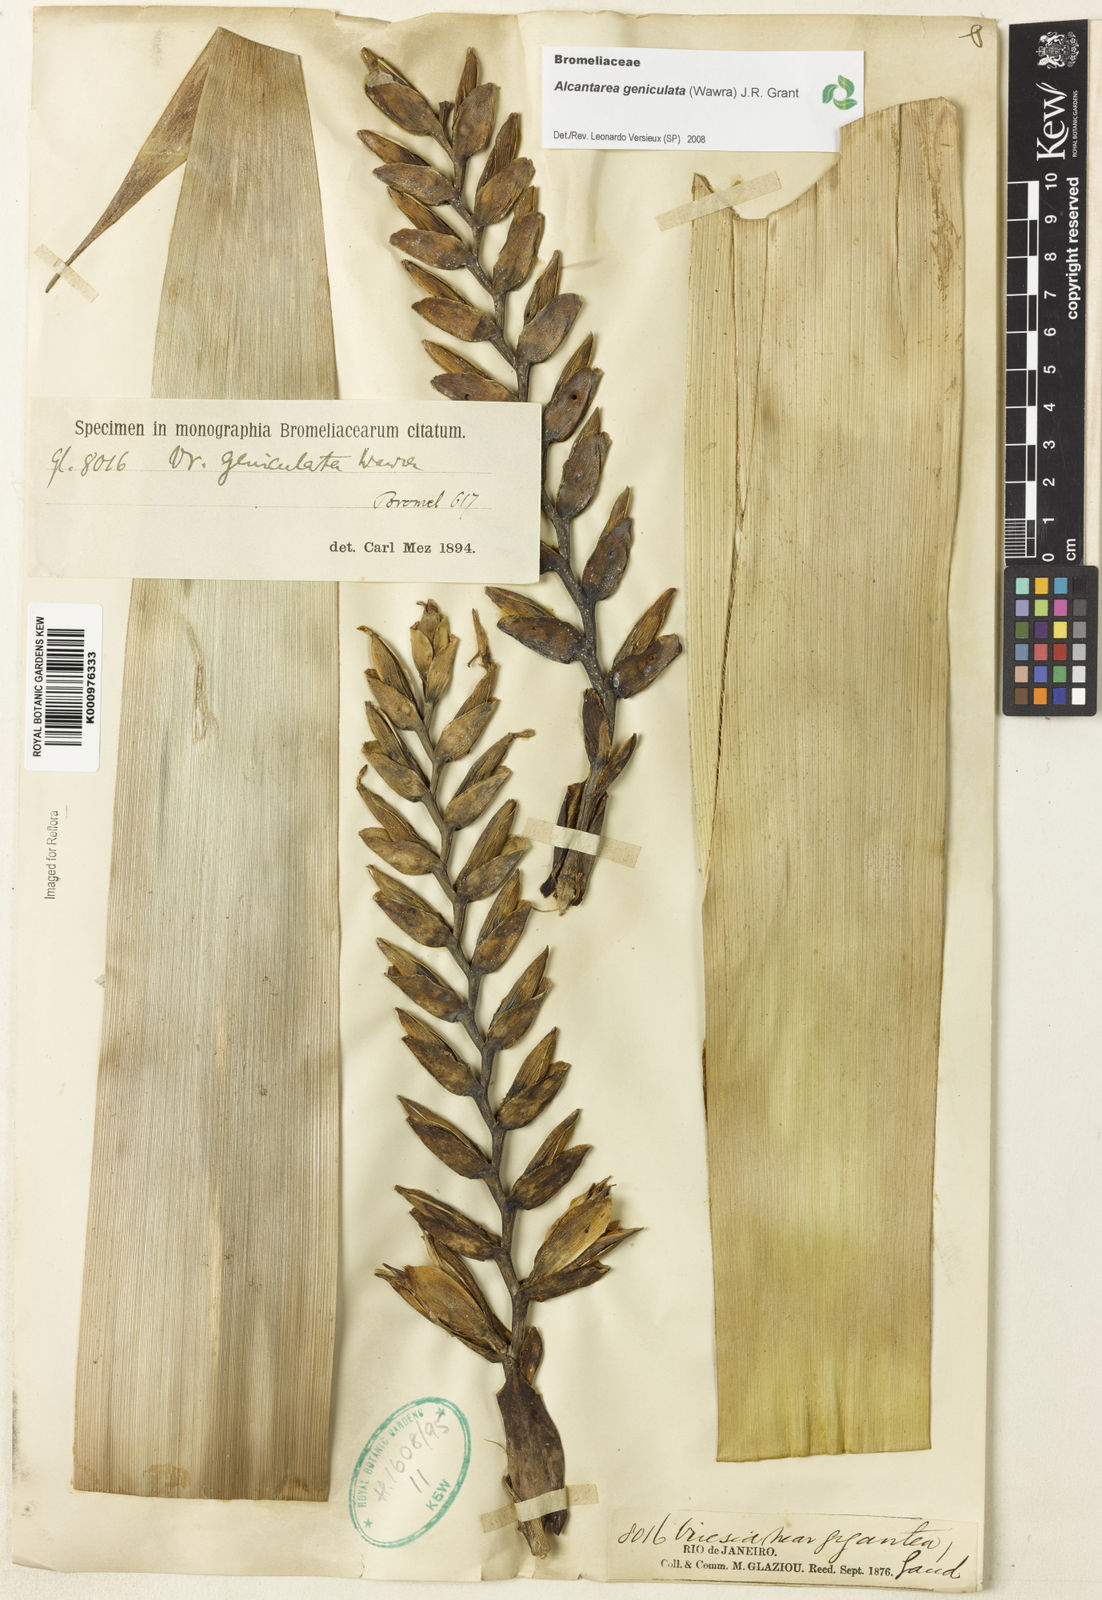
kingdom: Plantae
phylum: Tracheophyta
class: Liliopsida
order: Poales
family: Bromeliaceae
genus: Alcantarea
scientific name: Alcantarea geniculata
